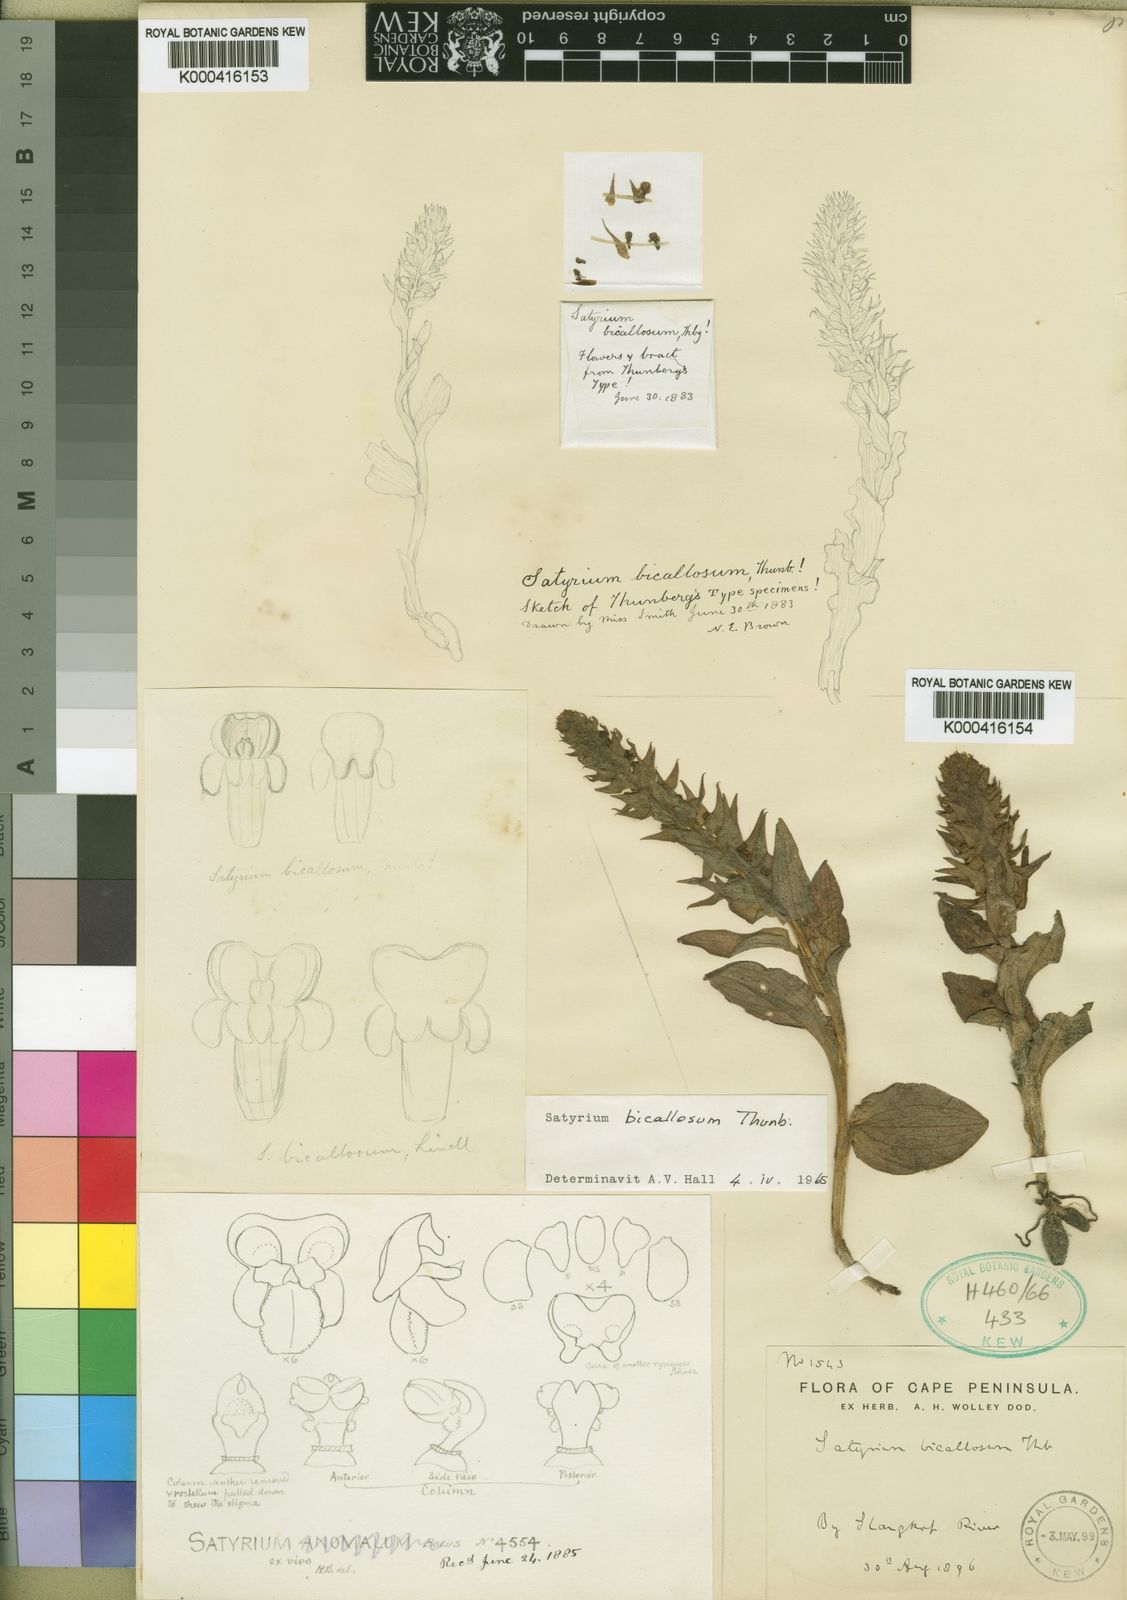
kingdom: Plantae
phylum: Tracheophyta
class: Liliopsida
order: Asparagales
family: Orchidaceae
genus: Satyrium
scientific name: Satyrium bicallosum
